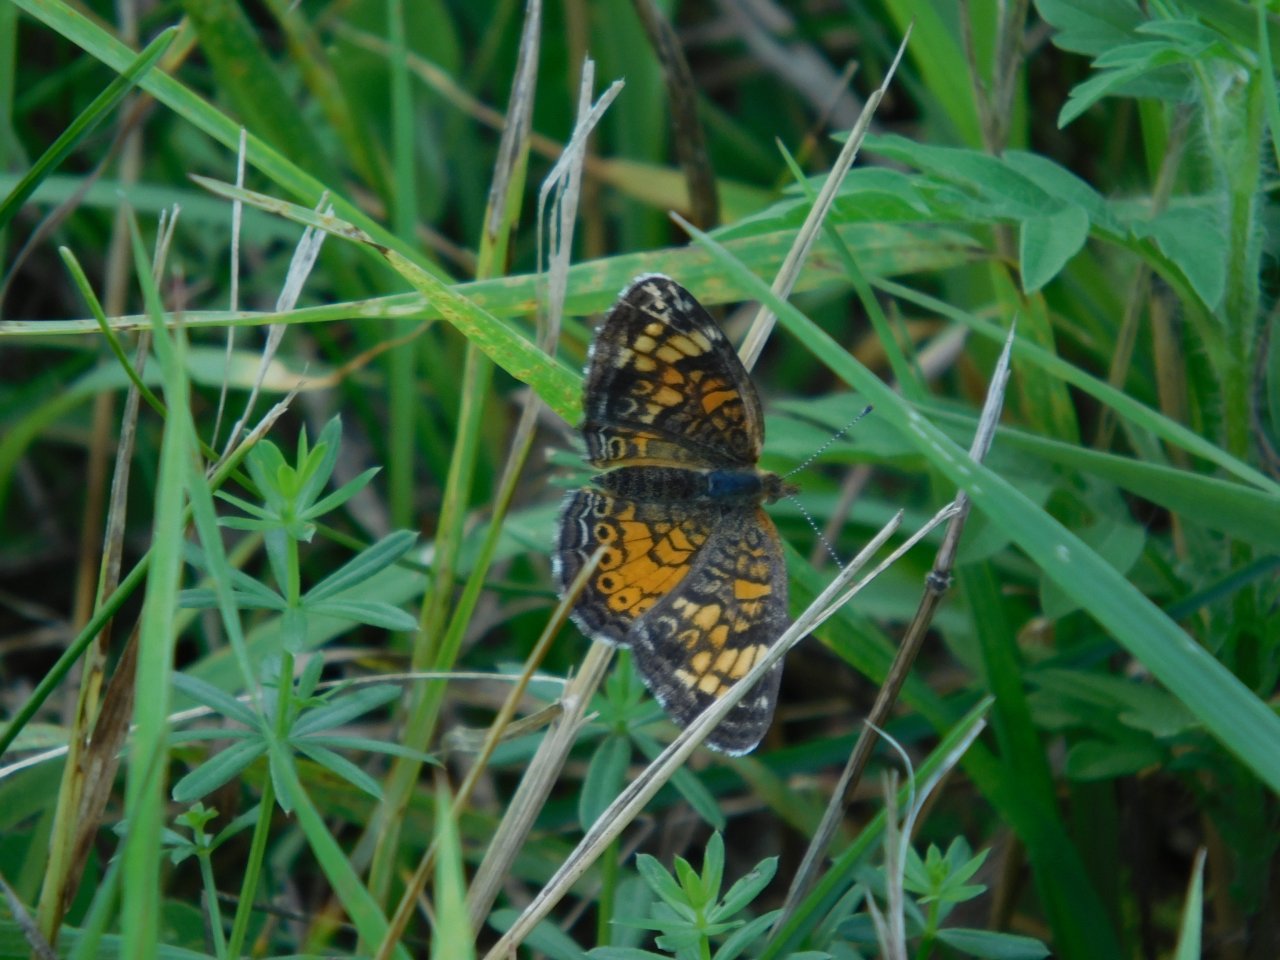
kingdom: Animalia
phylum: Arthropoda
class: Insecta
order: Lepidoptera
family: Nymphalidae
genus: Phyciodes
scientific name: Phyciodes tharos
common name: Pearl Crescent
